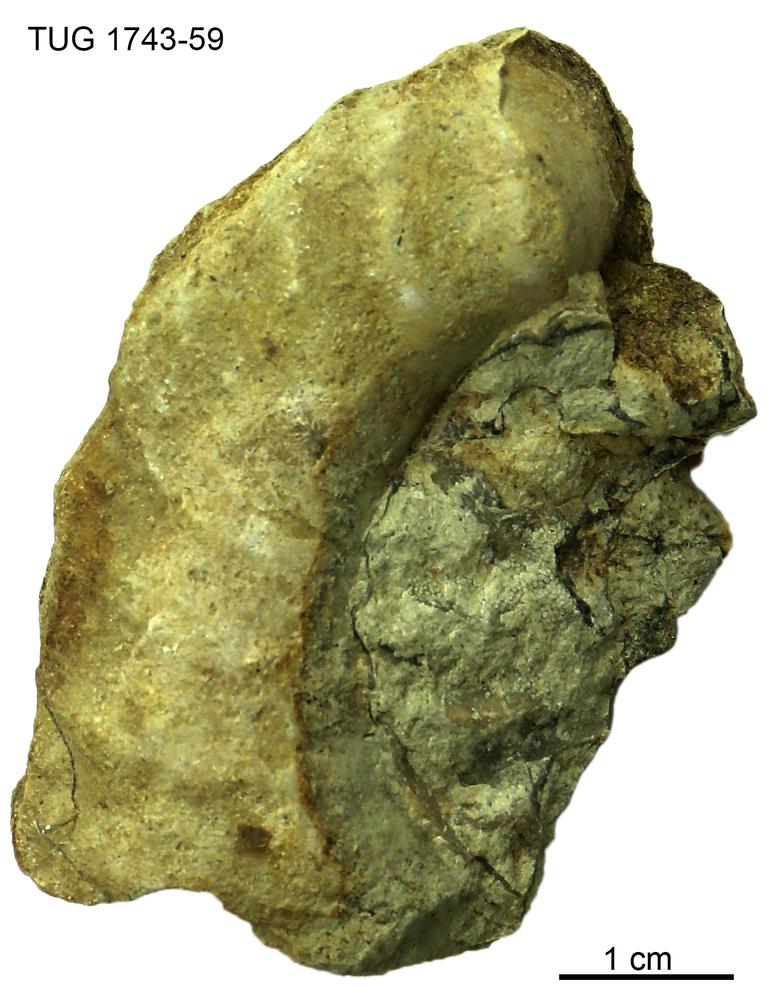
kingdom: Animalia
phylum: Mollusca
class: Cephalopoda
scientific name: Cephalopoda
